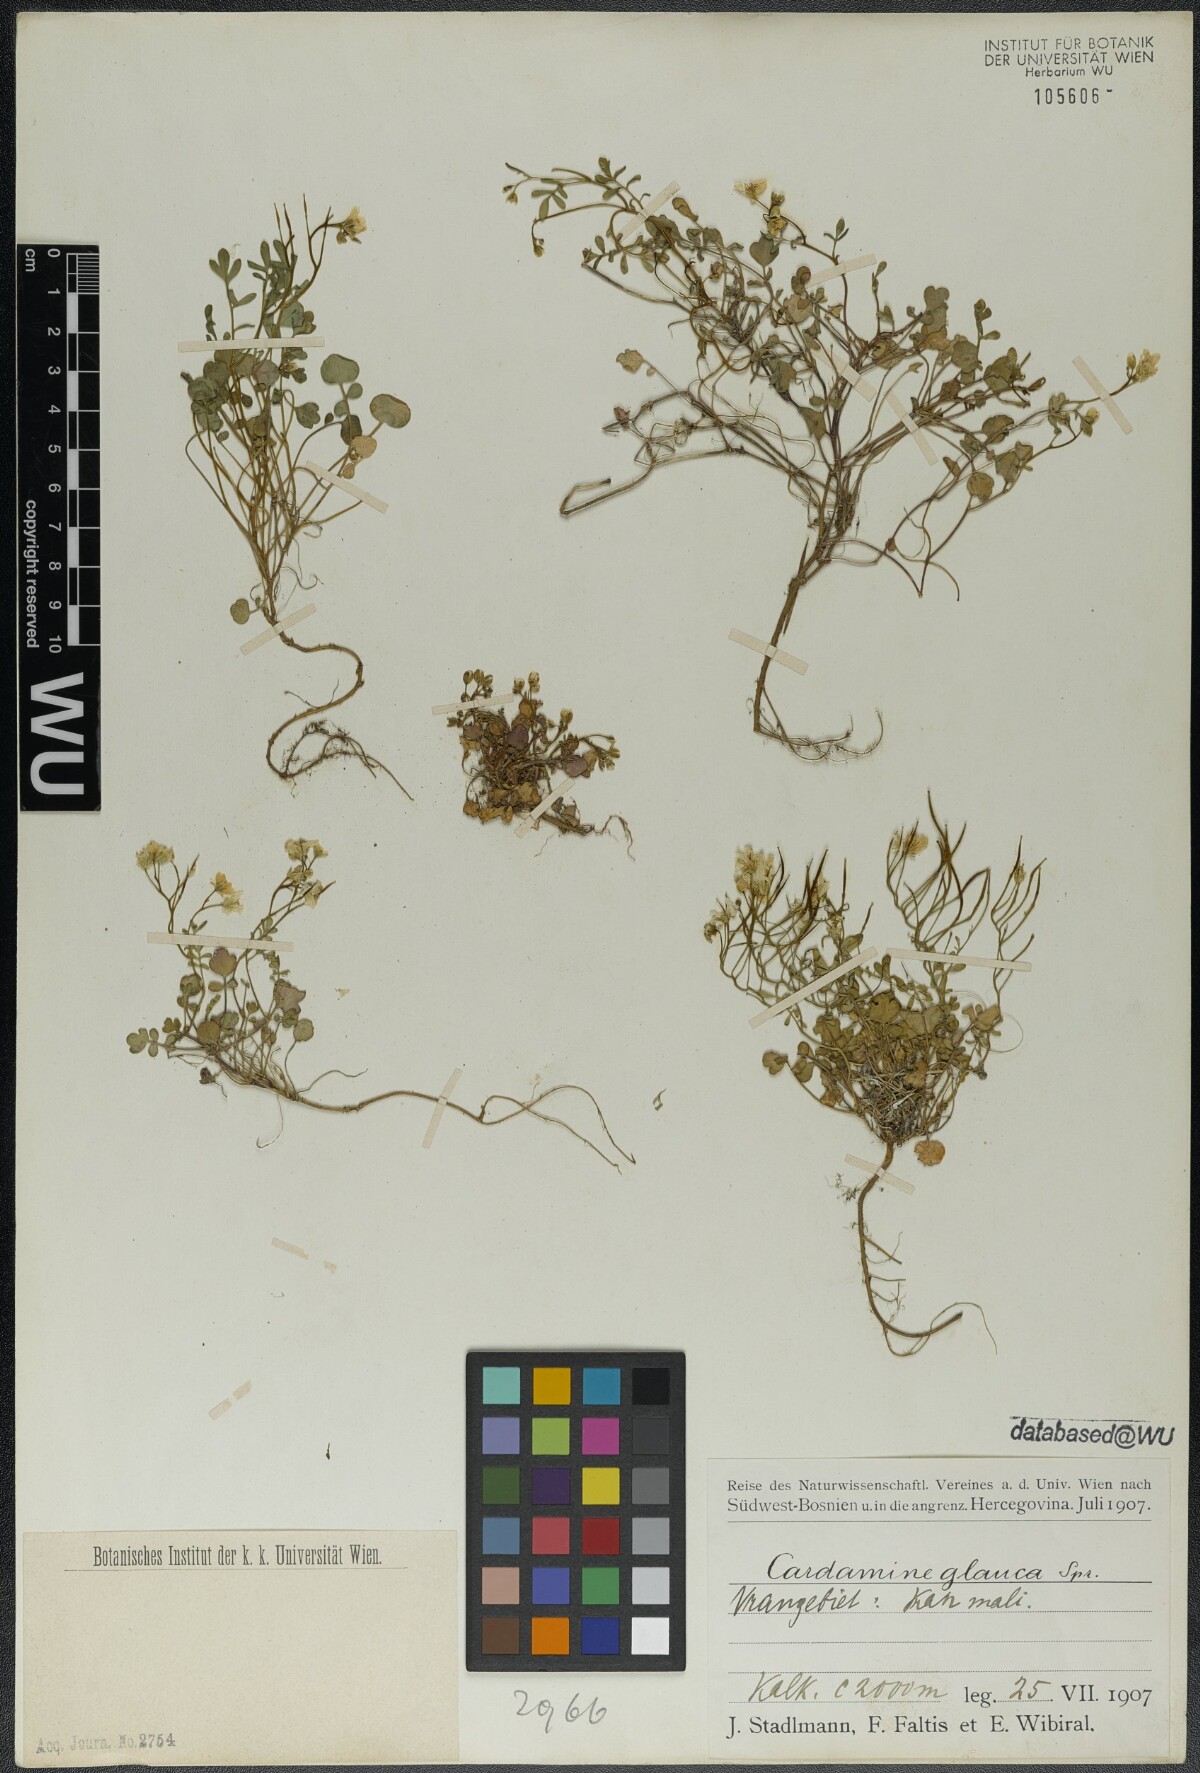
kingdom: Plantae
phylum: Tracheophyta
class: Magnoliopsida
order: Brassicales
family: Brassicaceae
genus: Cardamine
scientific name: Cardamine glauca
